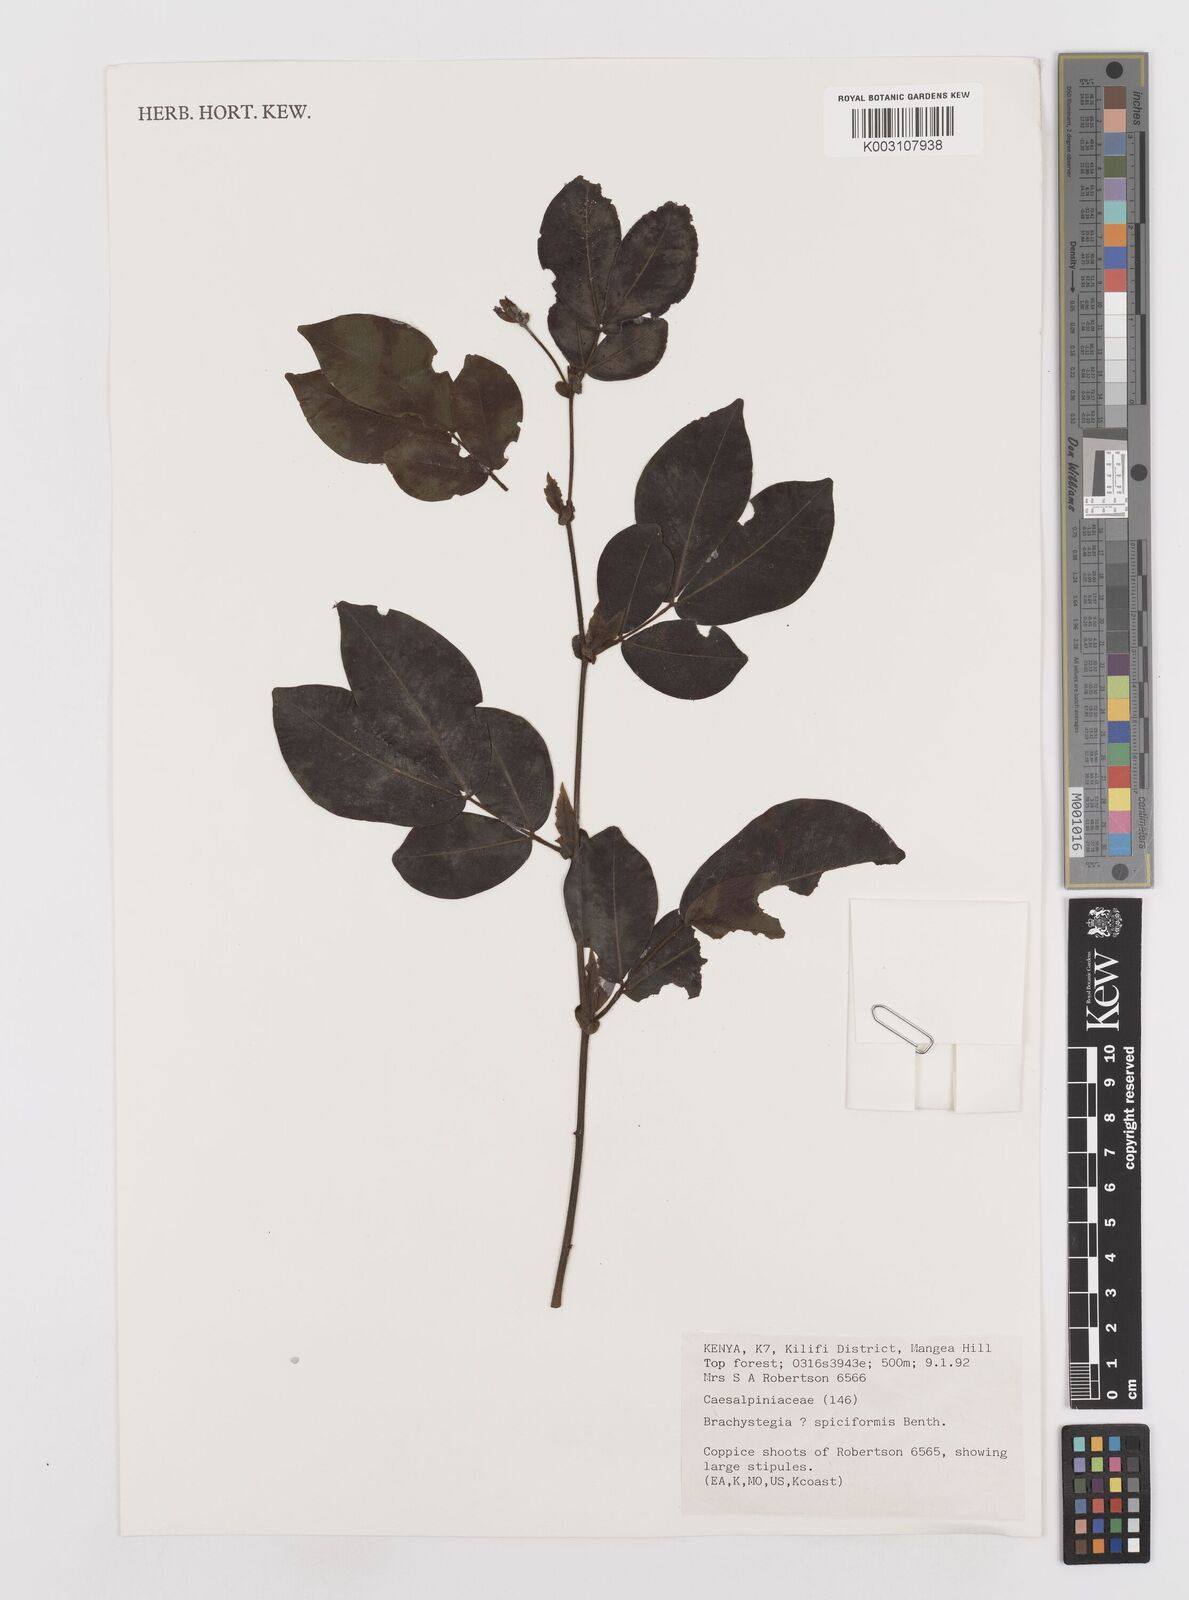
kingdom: Plantae
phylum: Tracheophyta
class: Magnoliopsida
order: Fabales
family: Fabaceae
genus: Brachystegia
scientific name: Brachystegia spiciformis
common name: Zebrawood
